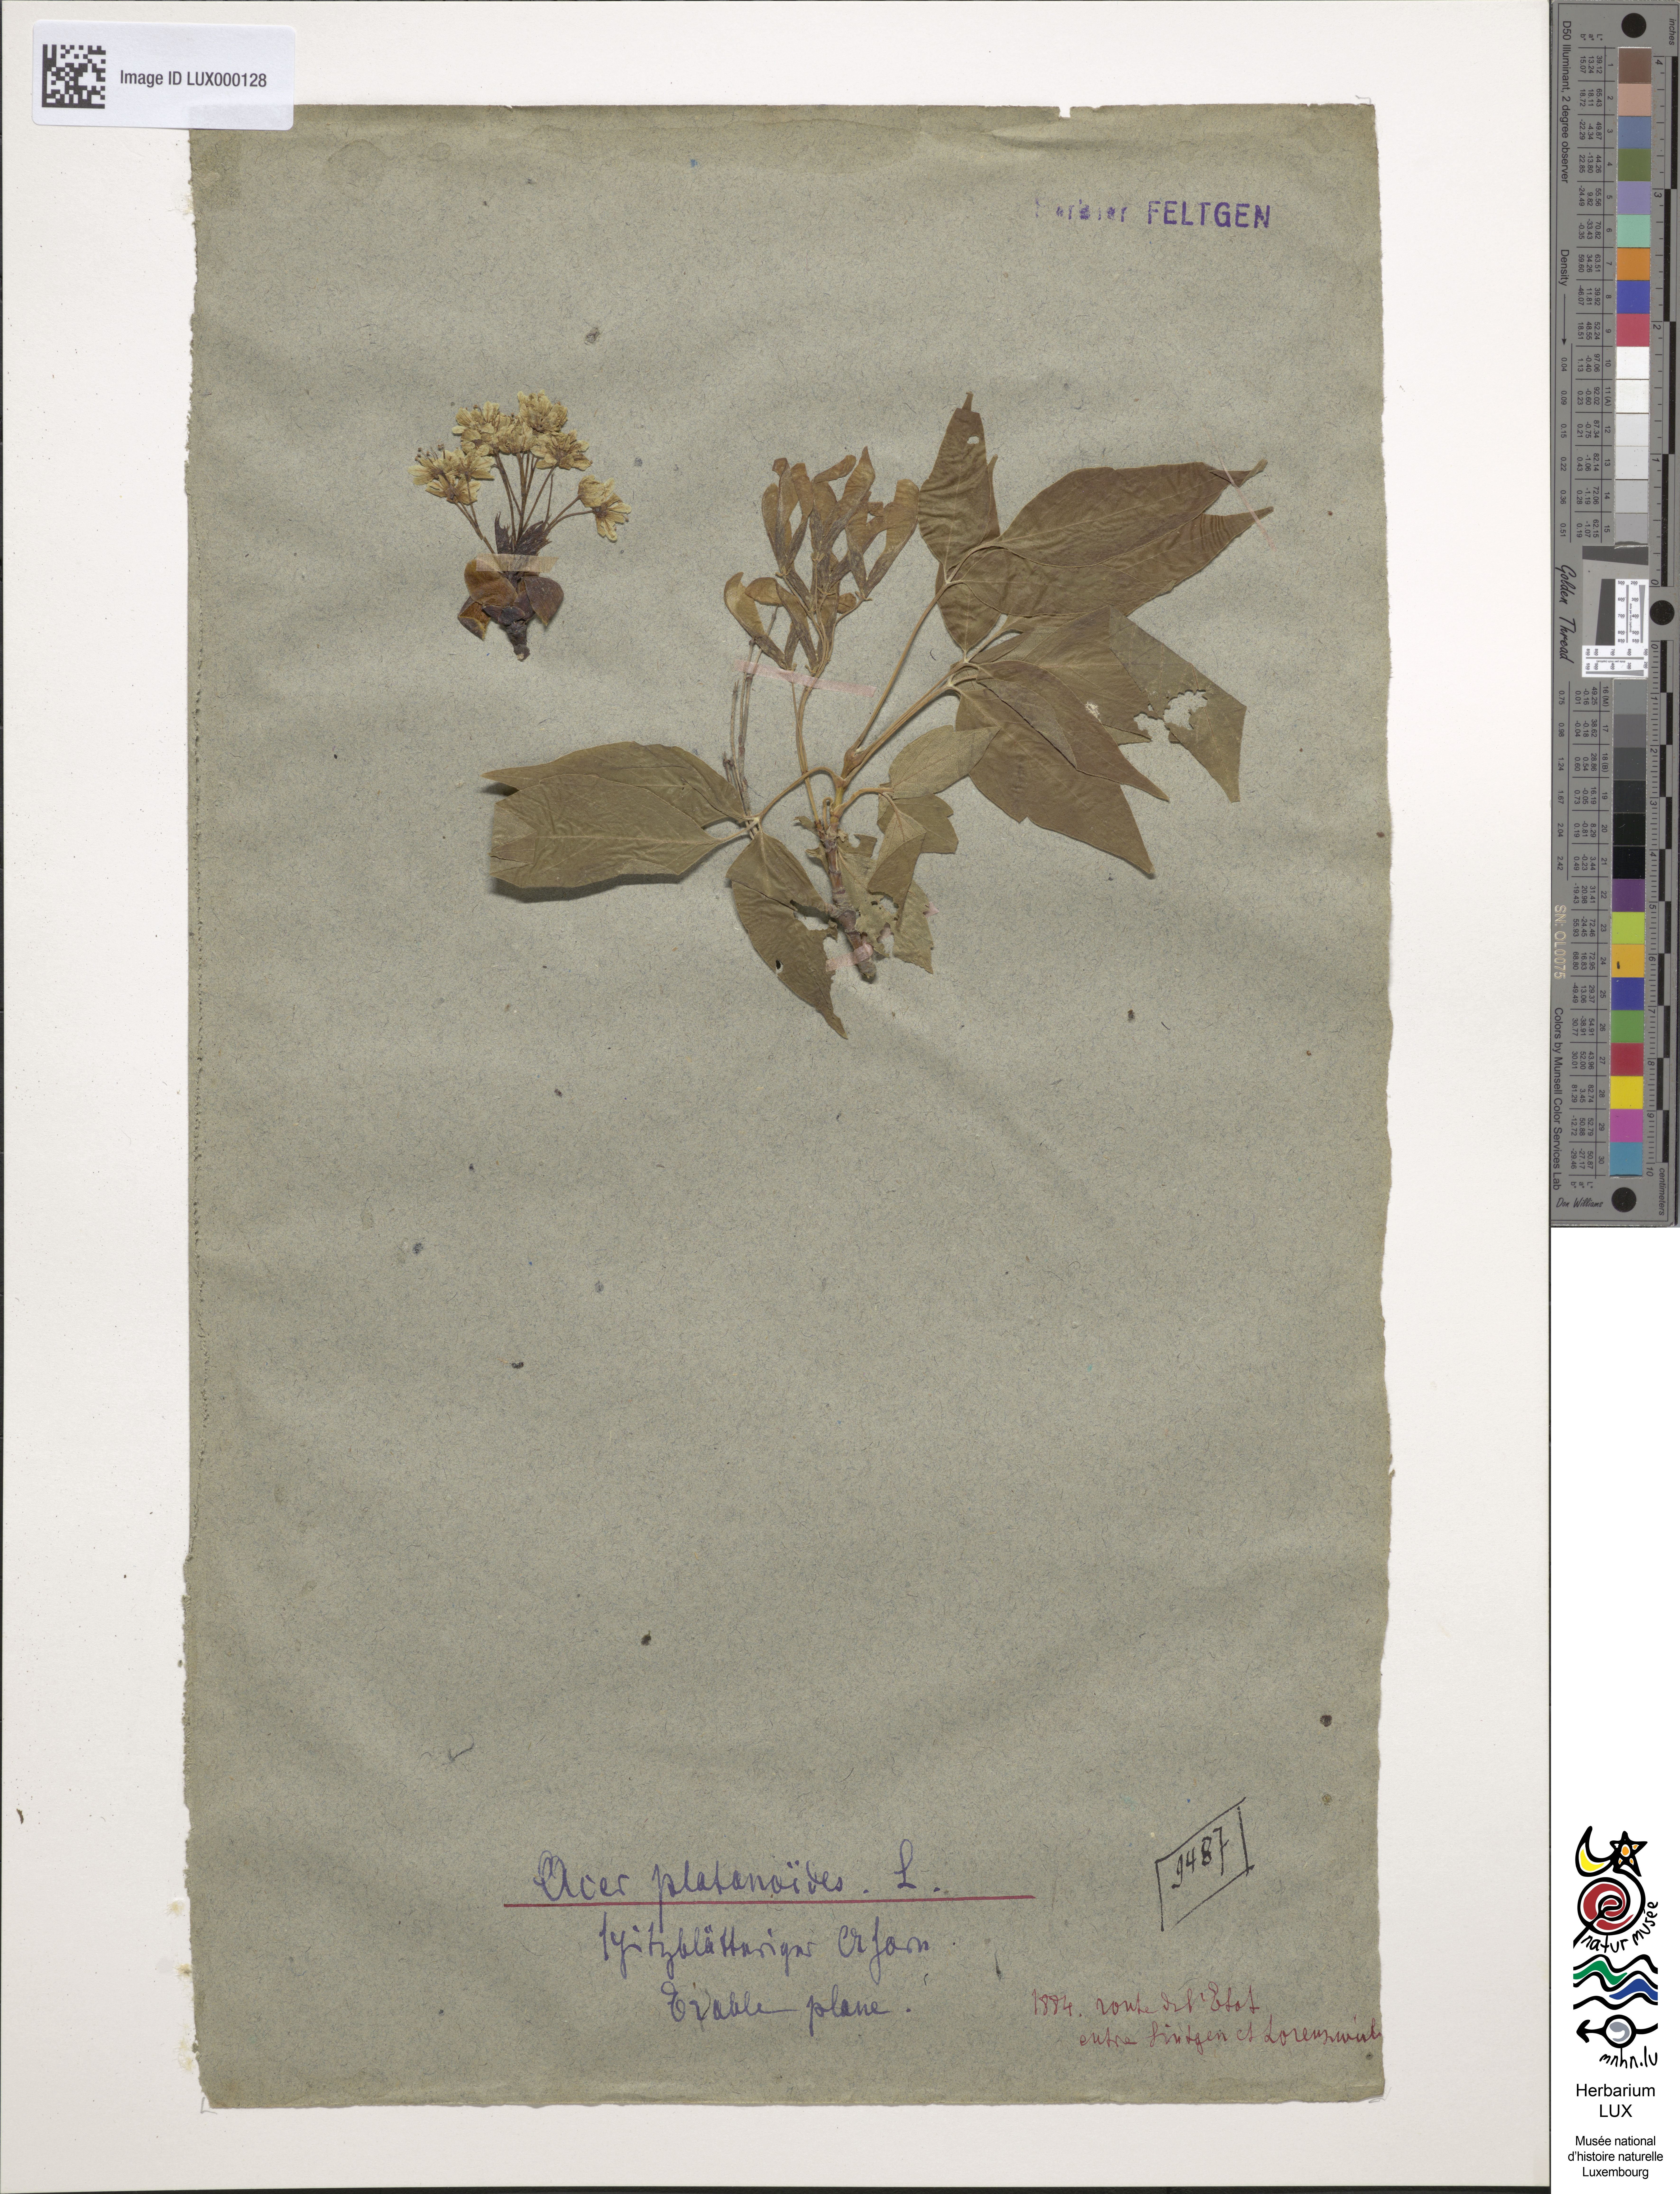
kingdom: Plantae
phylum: Tracheophyta
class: Magnoliopsida
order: Sapindales
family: Sapindaceae
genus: Acer
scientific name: Acer platanoides
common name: Norway maple
